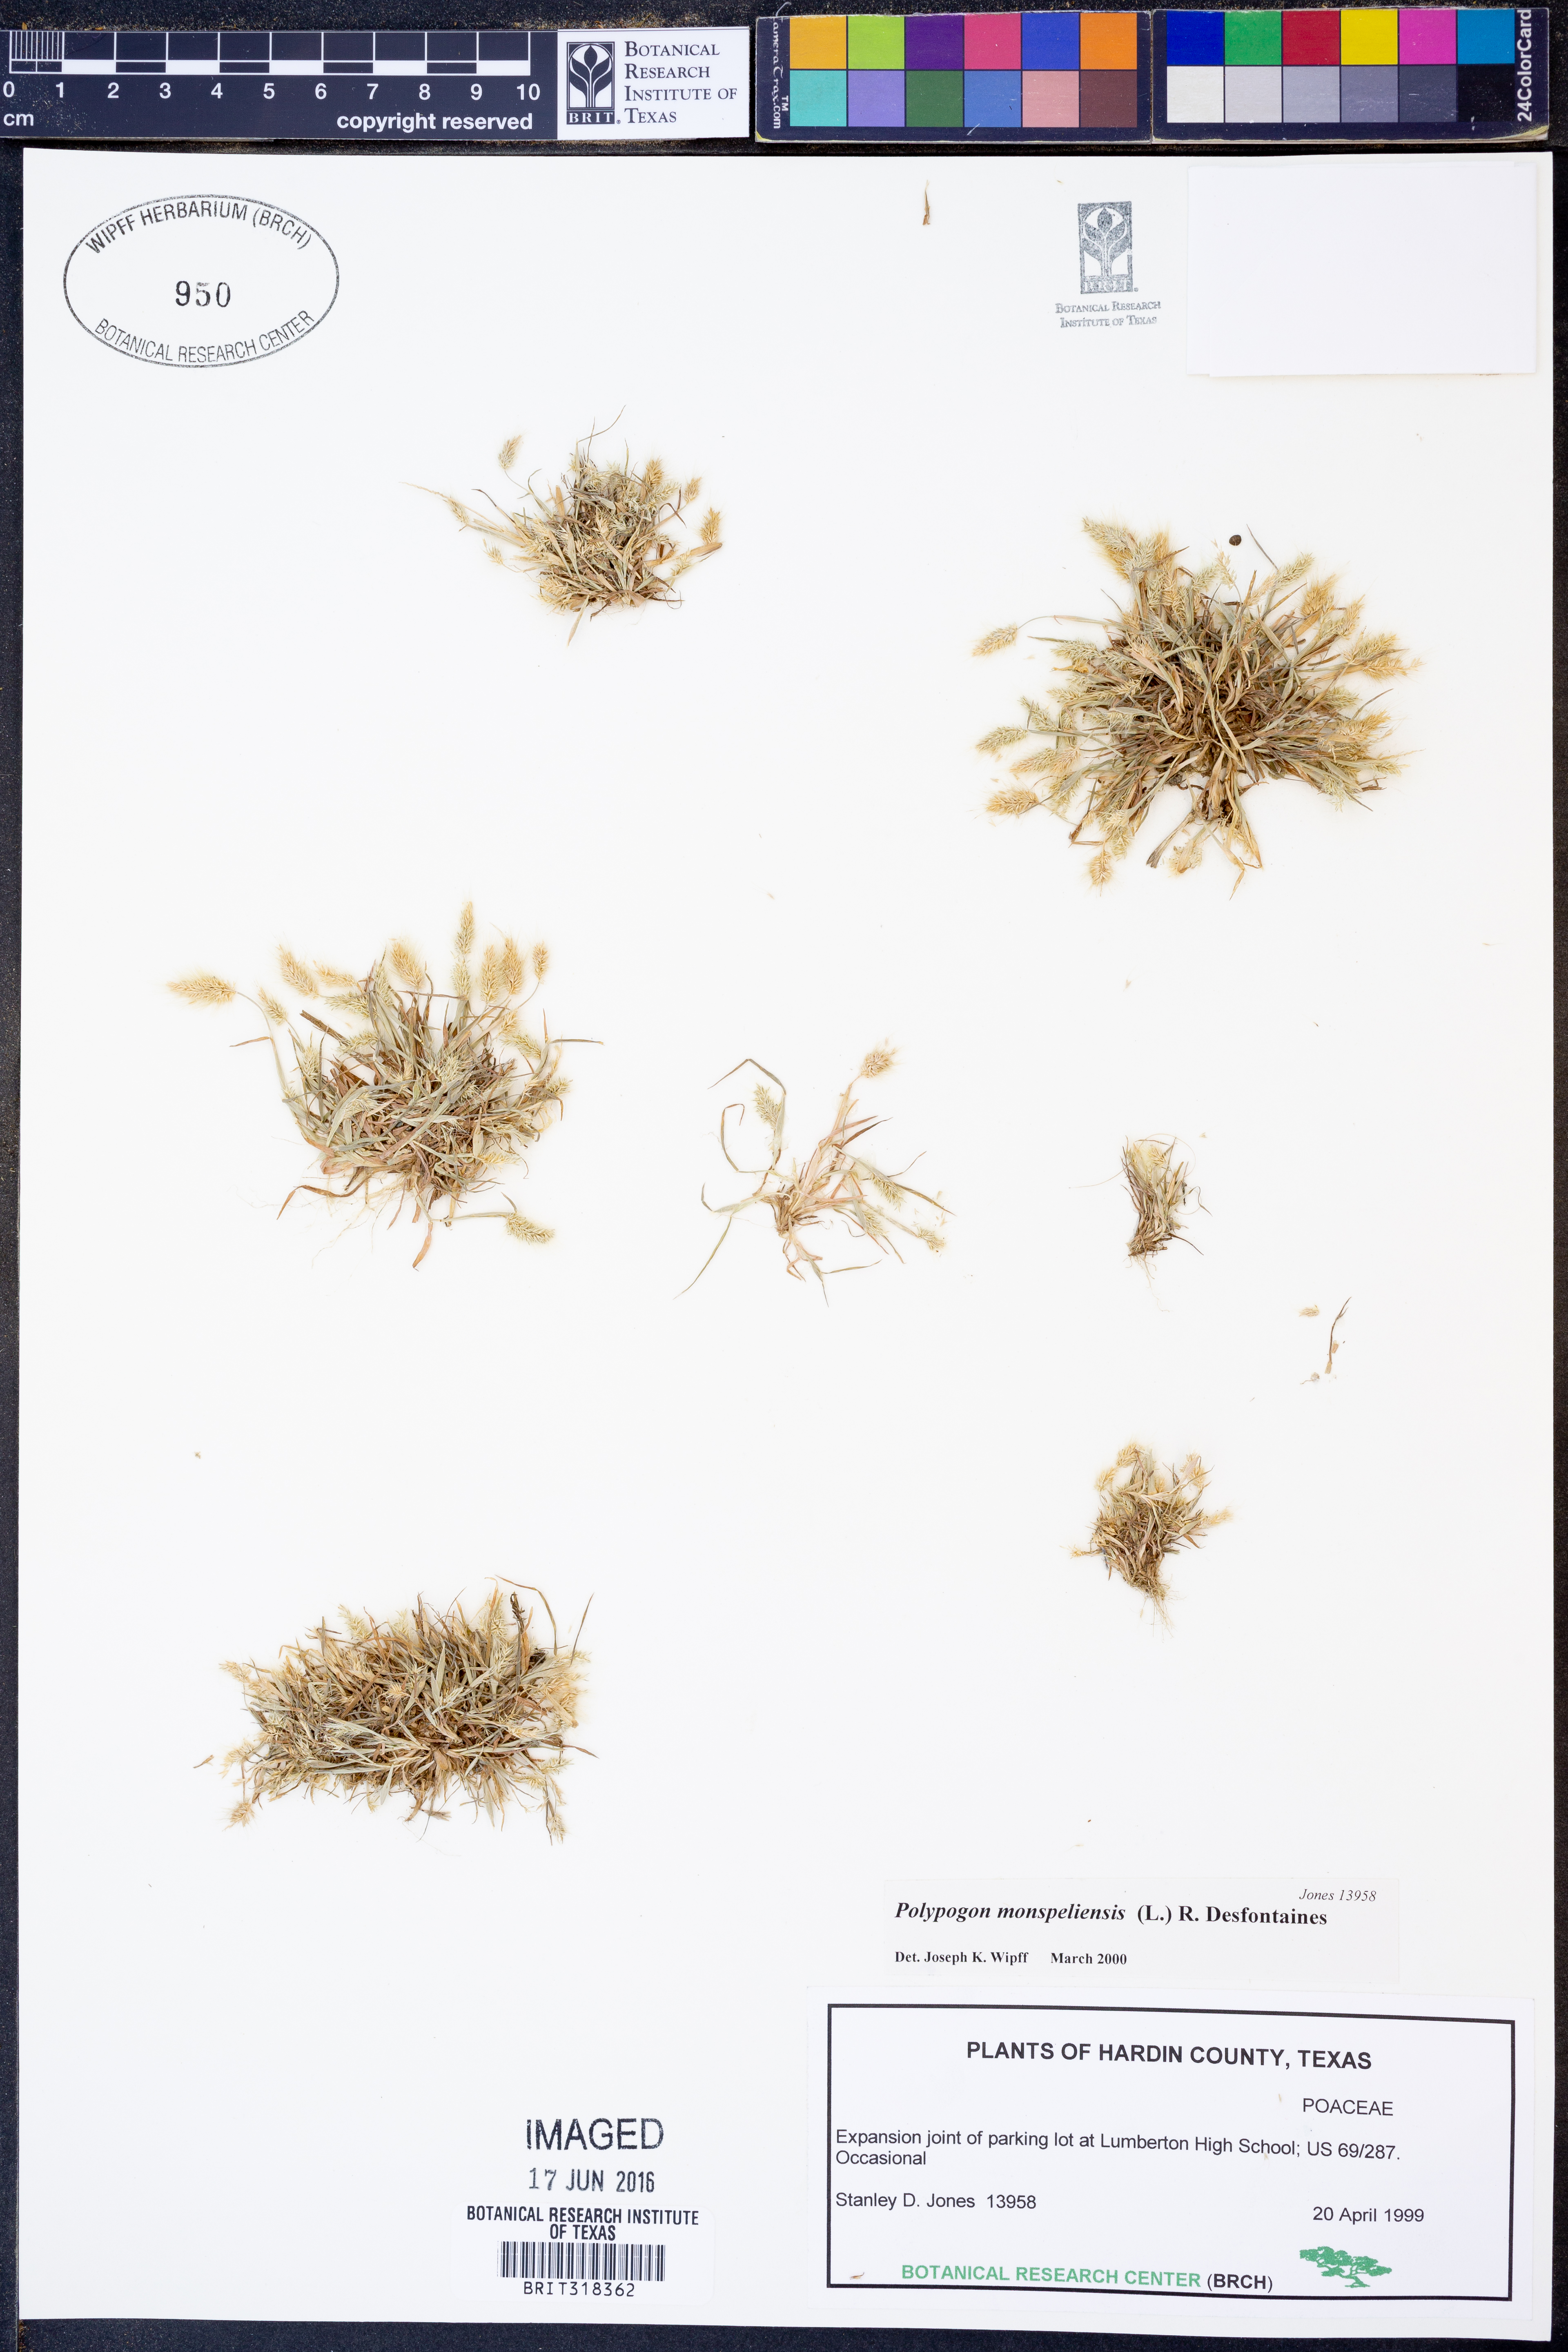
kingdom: Plantae
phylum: Tracheophyta
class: Liliopsida
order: Poales
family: Poaceae
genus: Polypogon
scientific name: Polypogon monspeliensis
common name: Annual rabbitsfoot grass
